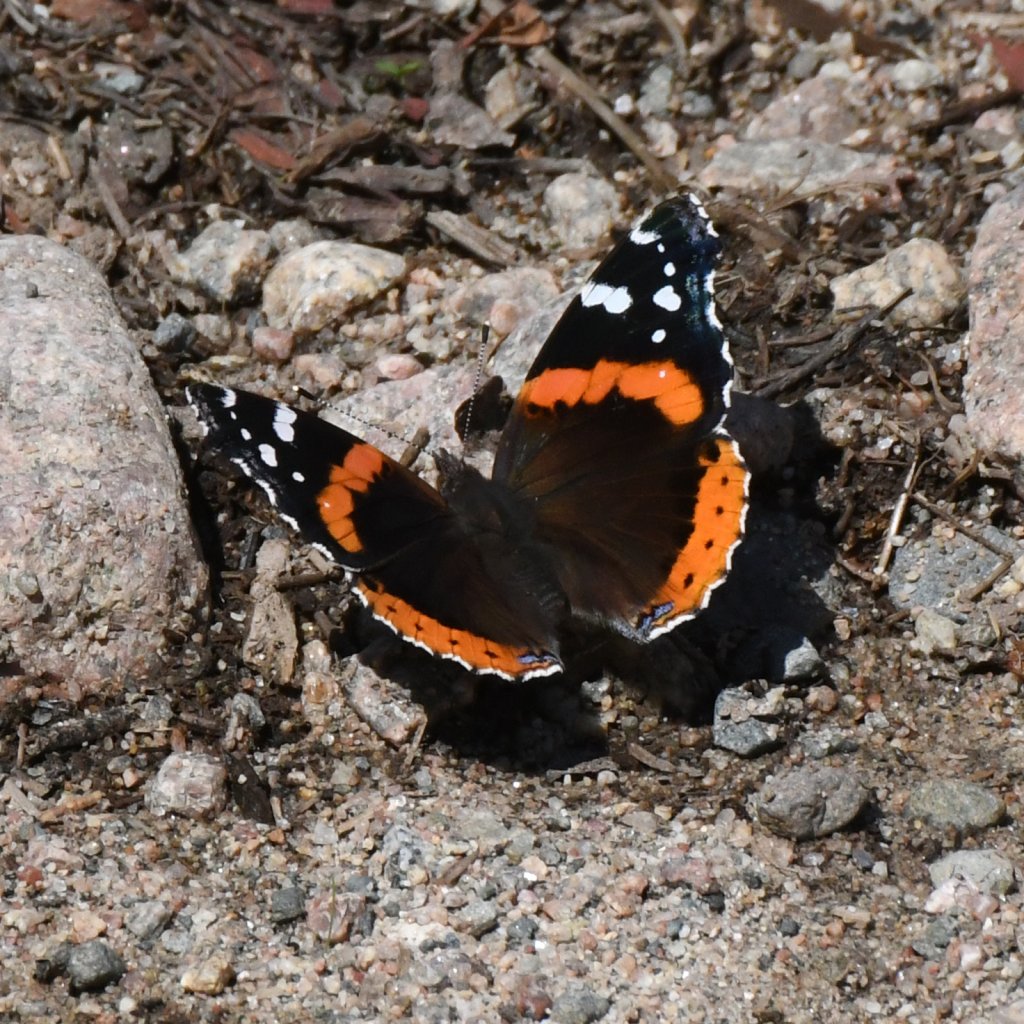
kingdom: Animalia
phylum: Arthropoda
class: Insecta
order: Lepidoptera
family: Nymphalidae
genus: Vanessa
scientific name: Vanessa atalanta
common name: Red Admiral
